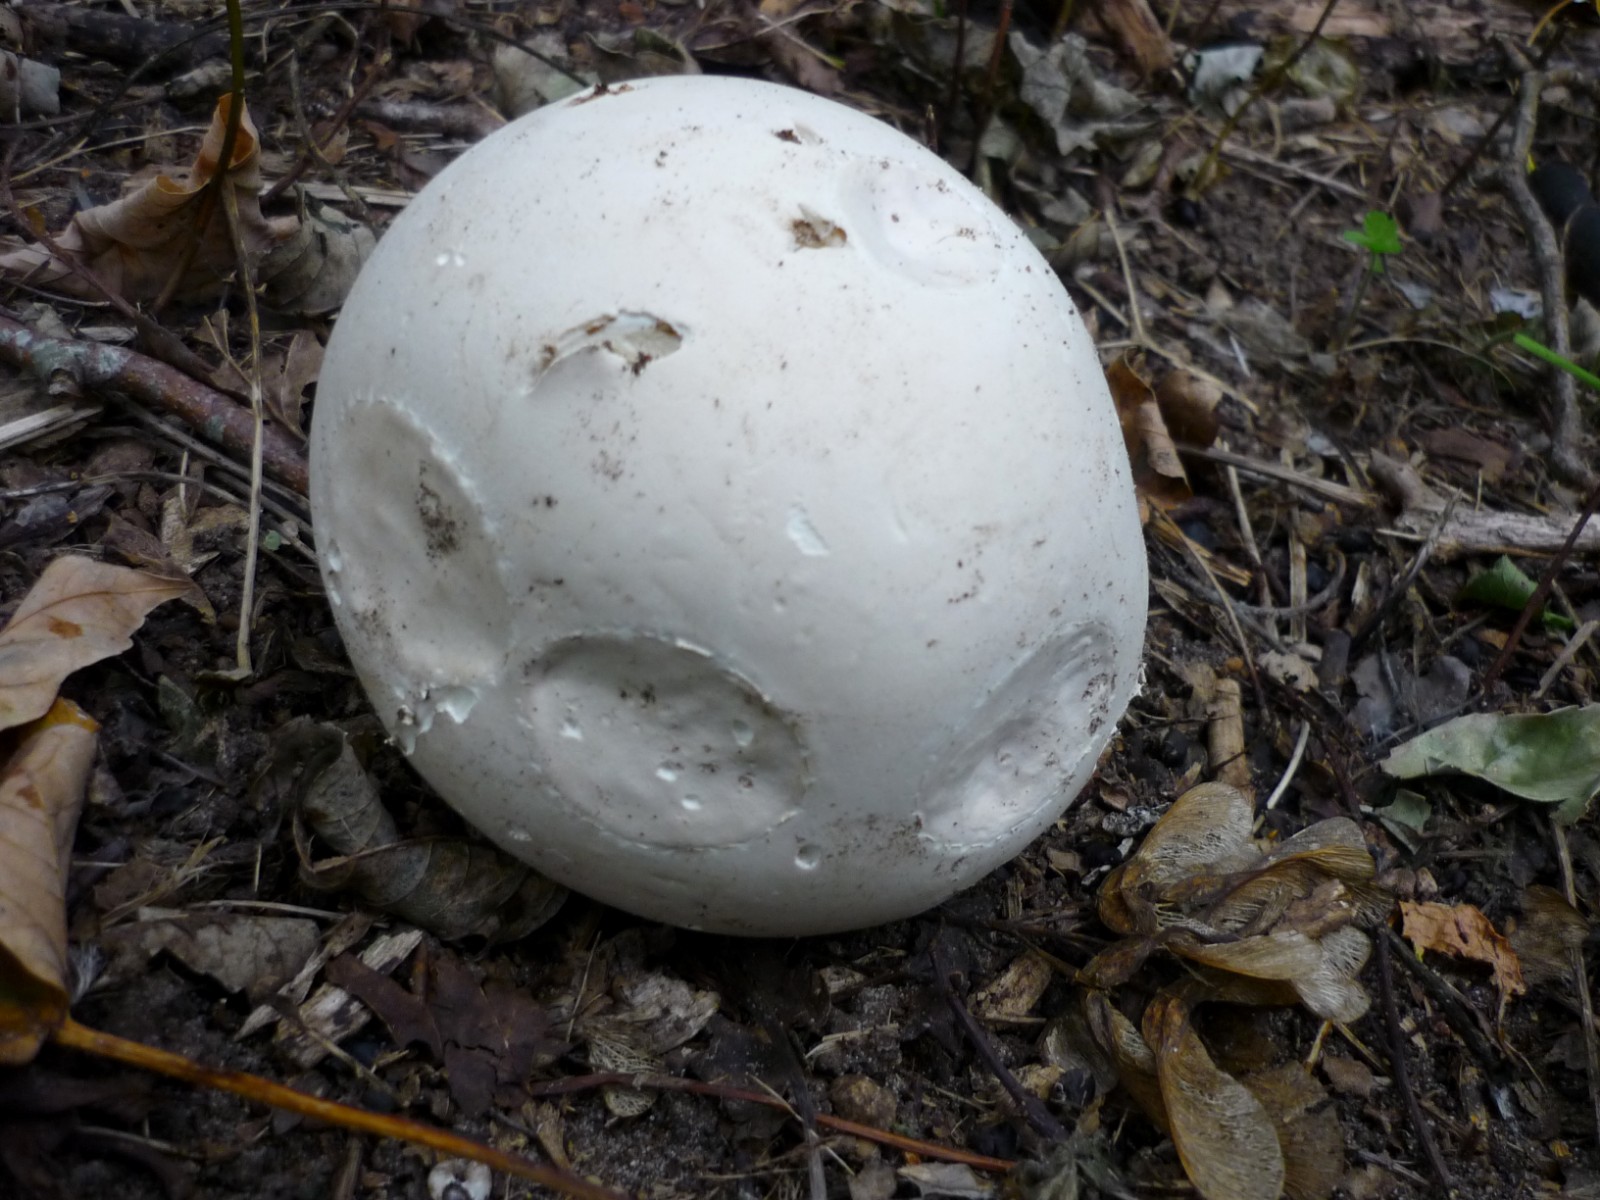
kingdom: Fungi
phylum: Basidiomycota
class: Agaricomycetes
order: Agaricales
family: Lycoperdaceae
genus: Calvatia
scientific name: Calvatia gigantea
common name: kæmpestøvbold
